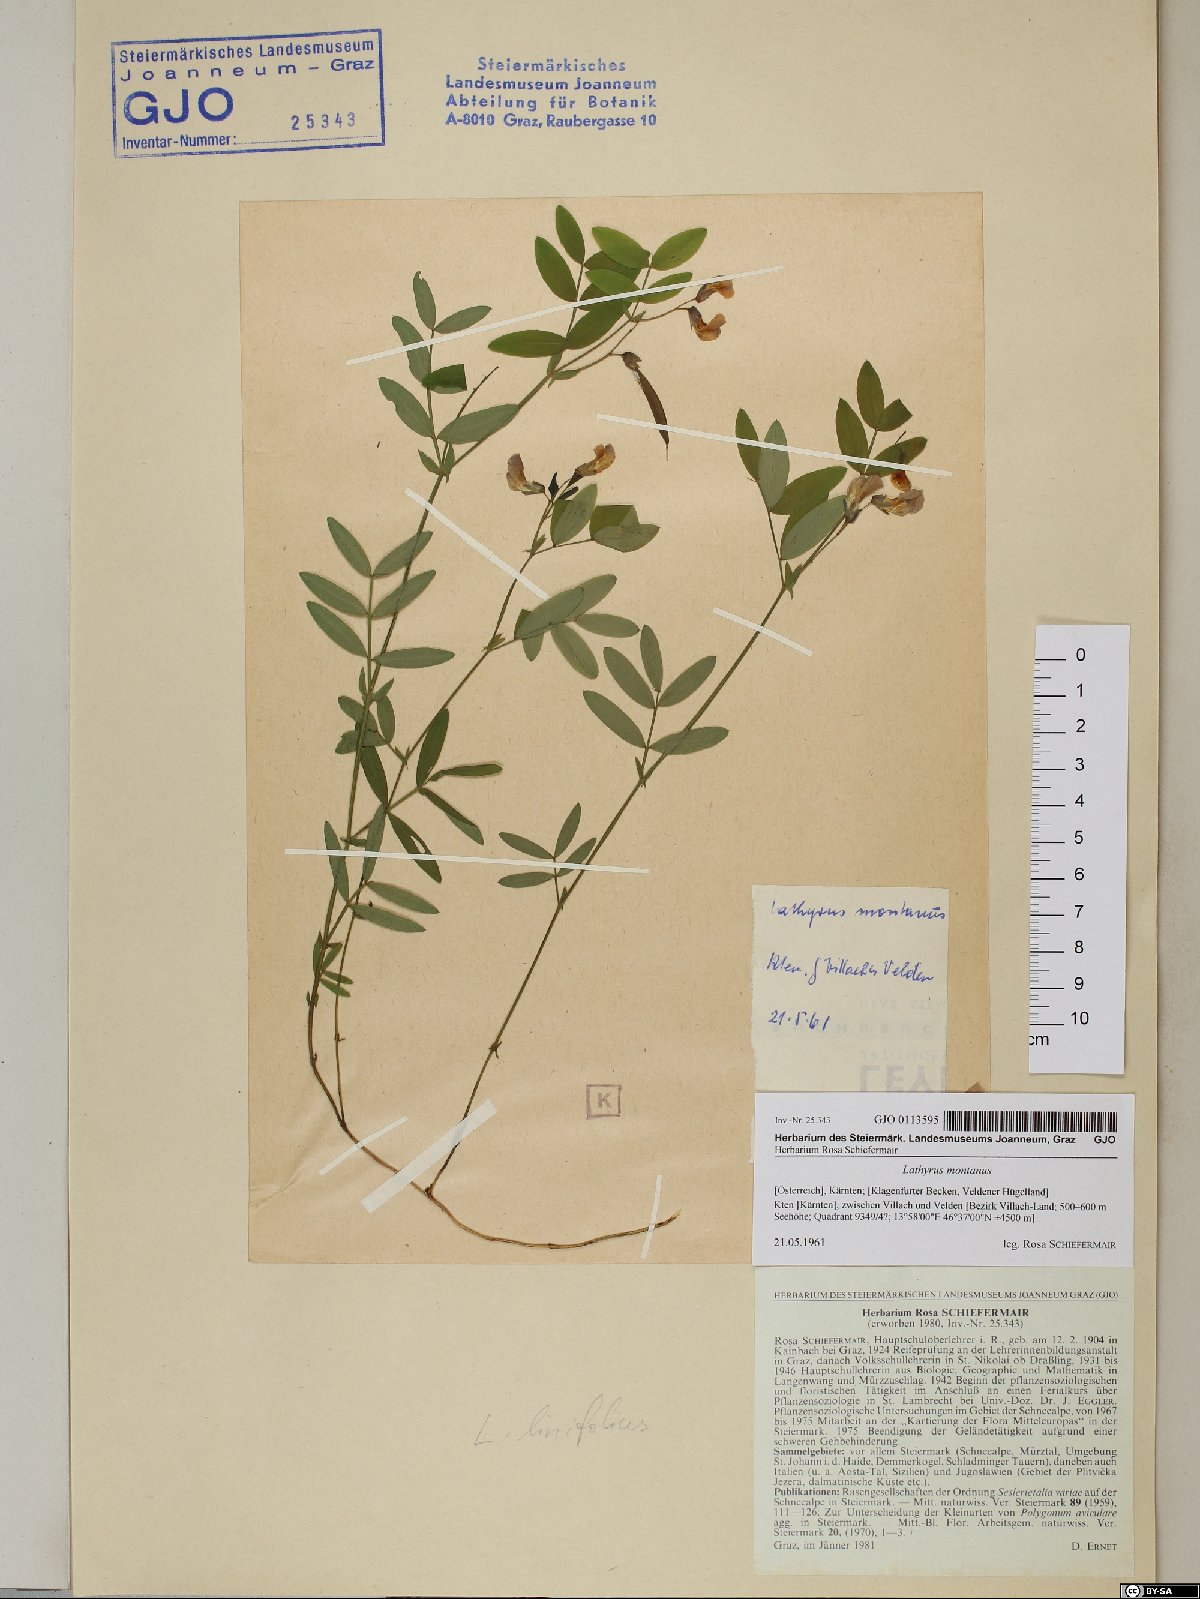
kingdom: Plantae
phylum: Tracheophyta
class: Magnoliopsida
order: Fabales
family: Fabaceae
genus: Lathyrus
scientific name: Lathyrus linifolius
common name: Bitter-vetch
